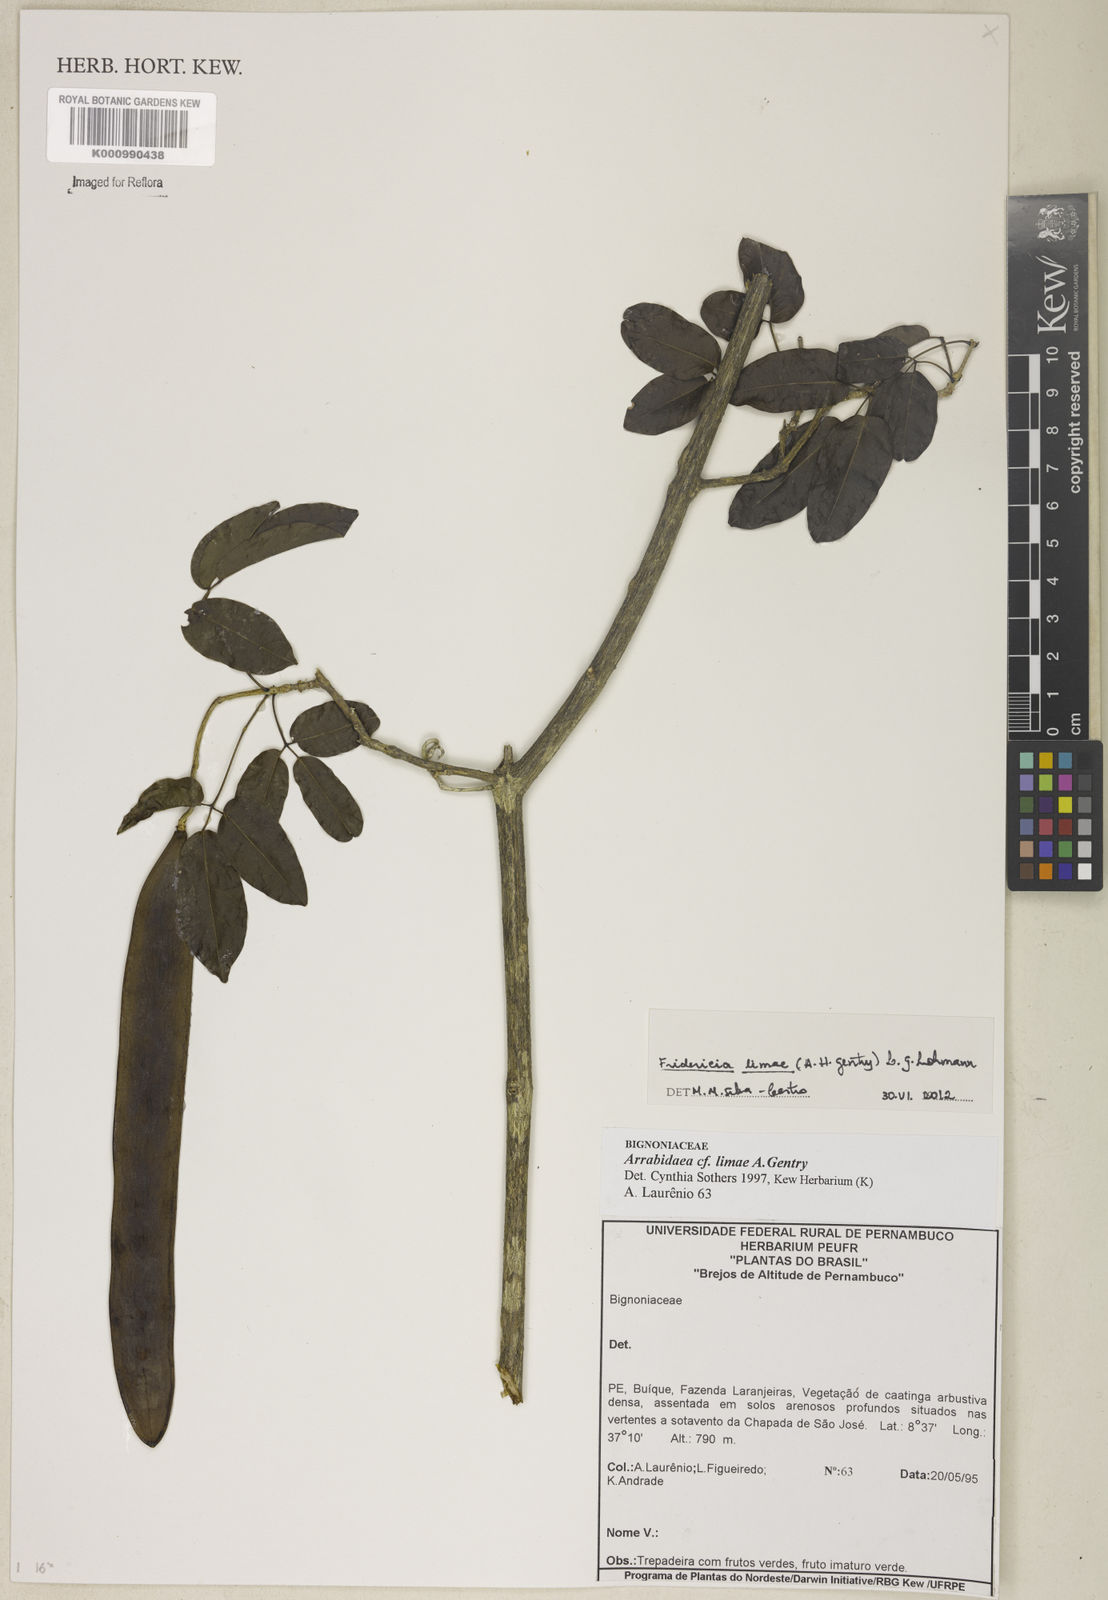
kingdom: Plantae
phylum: Tracheophyta
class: Magnoliopsida
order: Lamiales
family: Bignoniaceae
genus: Fridericia
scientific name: Fridericia limae
